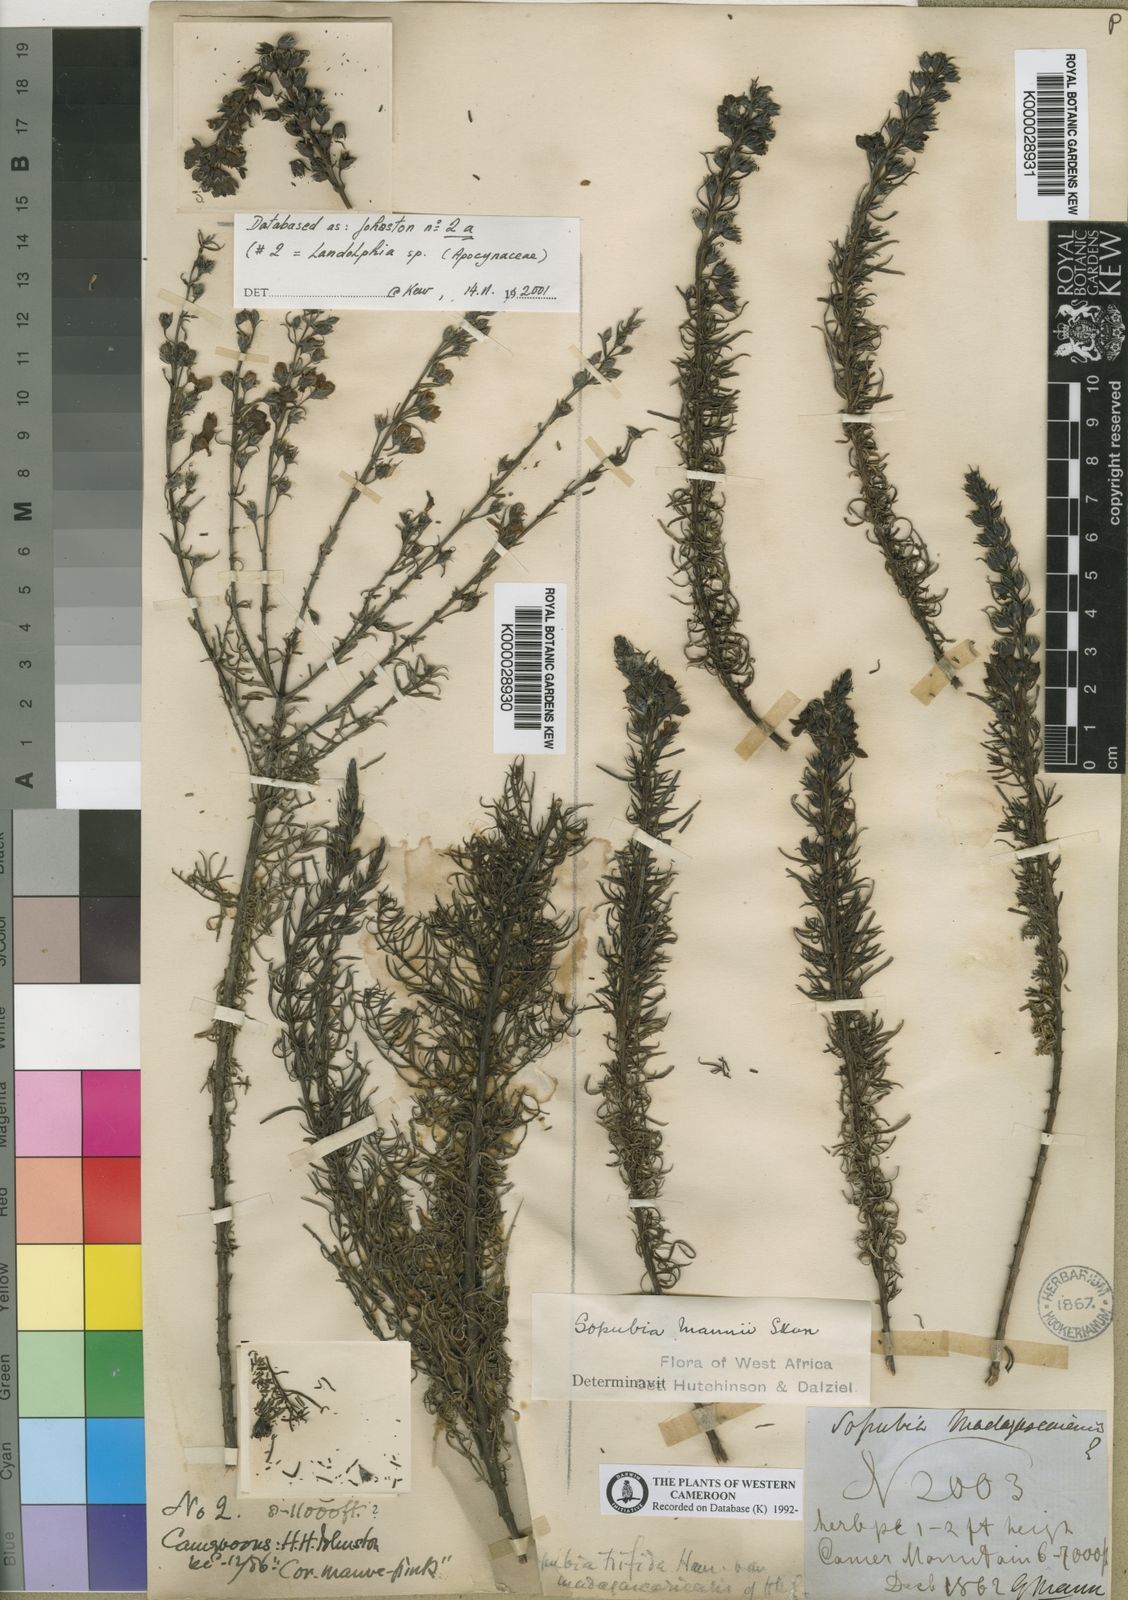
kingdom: Plantae
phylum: Tracheophyta
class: Magnoliopsida
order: Lamiales
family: Orobanchaceae
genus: Sopubia
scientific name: Sopubia mannii
